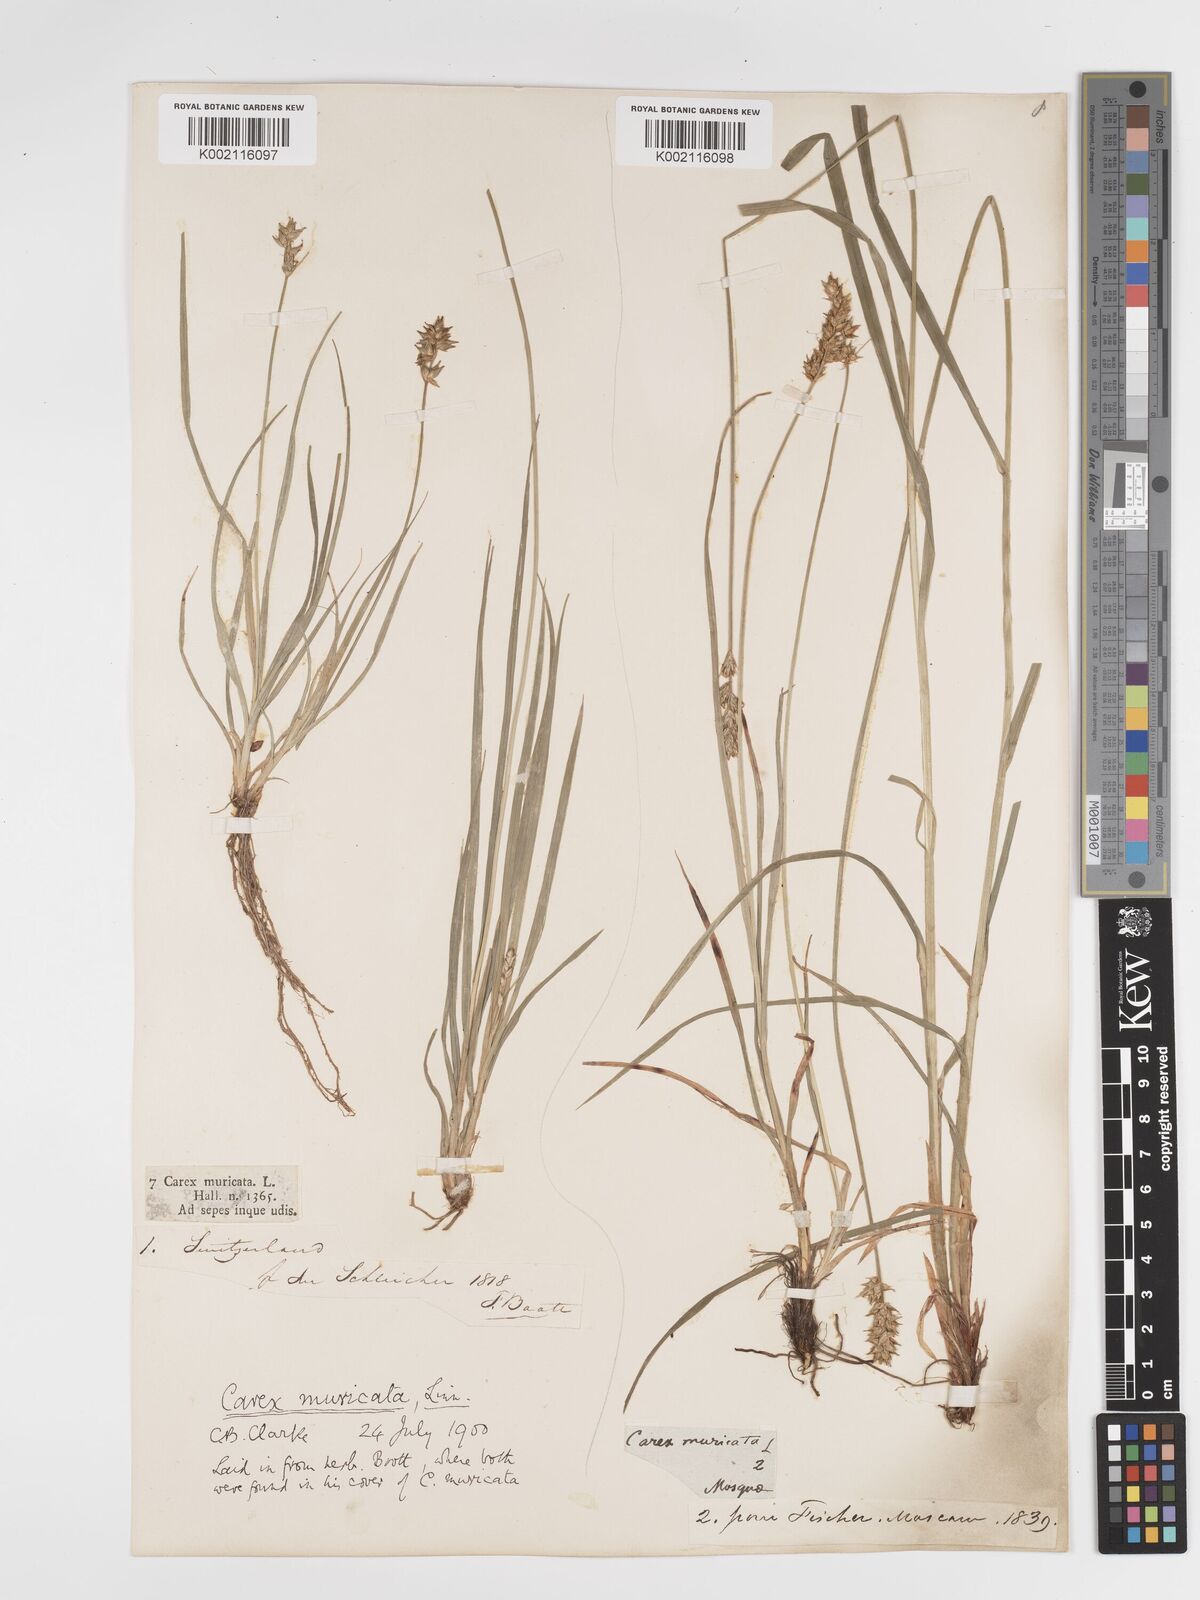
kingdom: Plantae
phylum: Tracheophyta
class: Liliopsida
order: Poales
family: Cyperaceae
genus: Carex
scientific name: Carex spicata
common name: Spiked sedge
